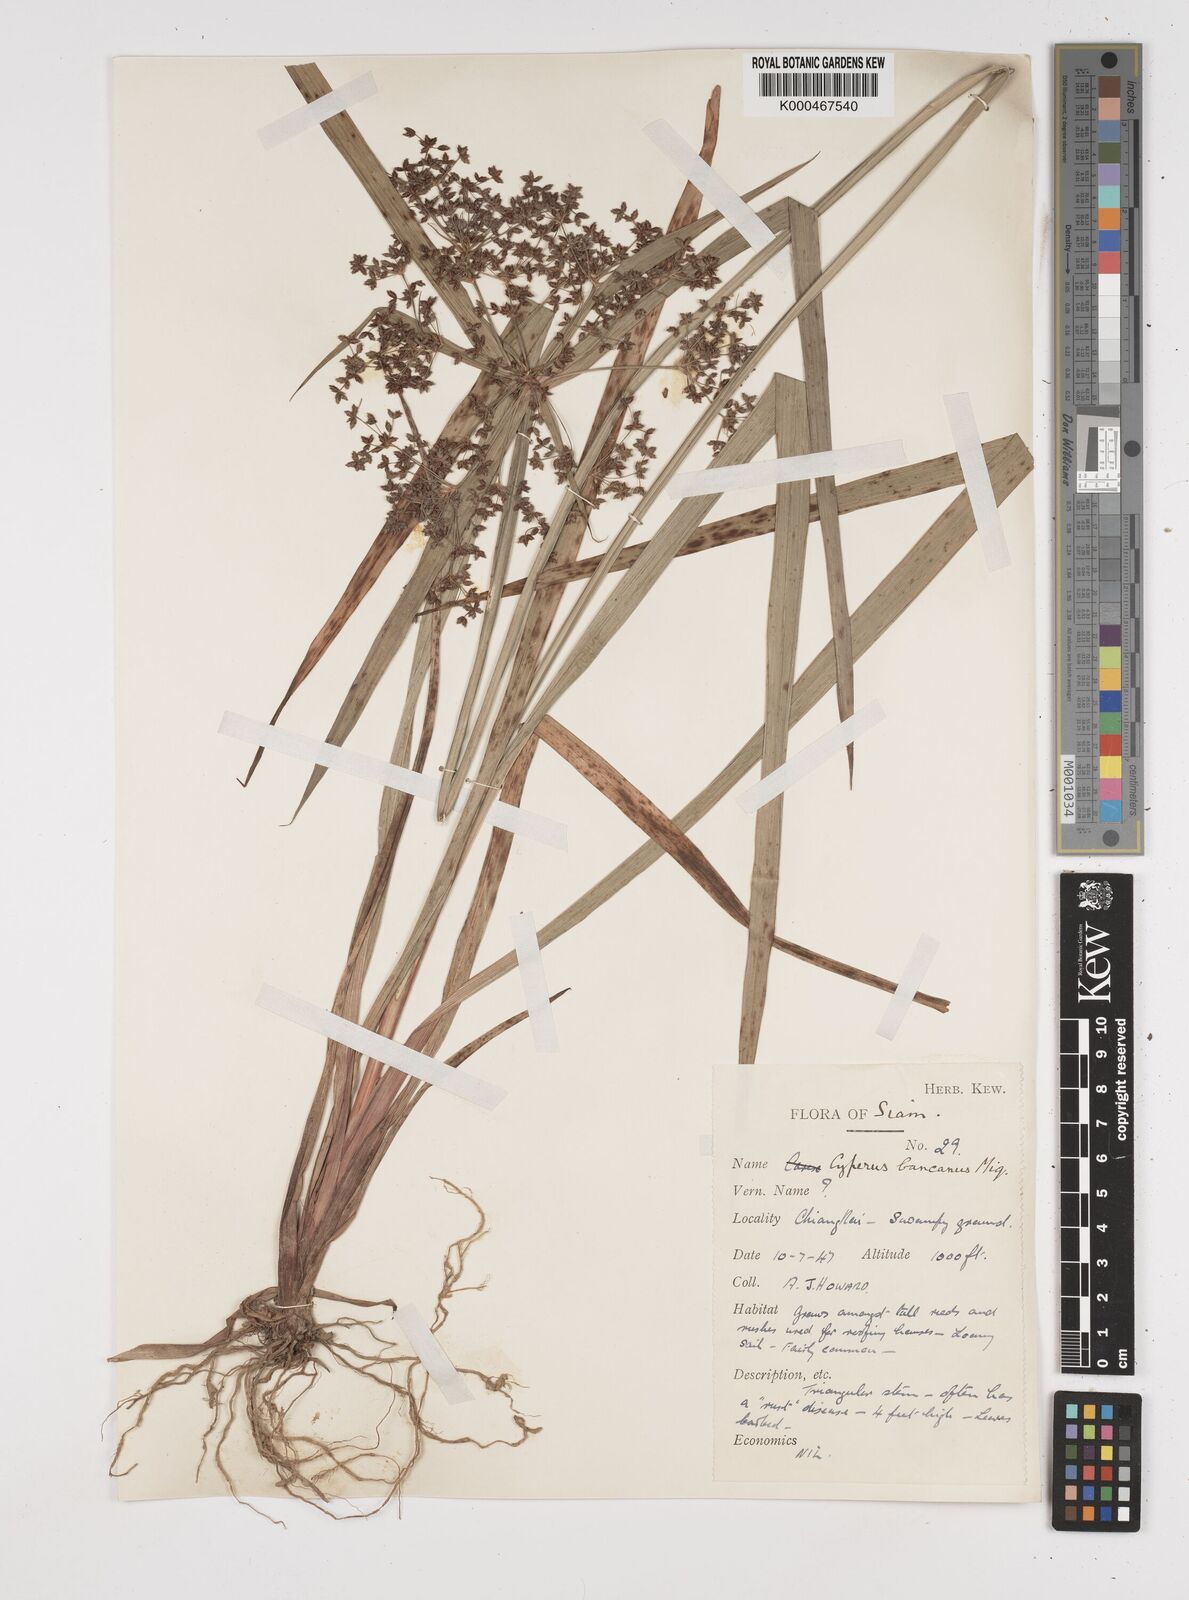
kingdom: Plantae
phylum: Tracheophyta
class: Liliopsida
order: Poales
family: Cyperaceae
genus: Cyperus
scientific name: Cyperus trialatus
